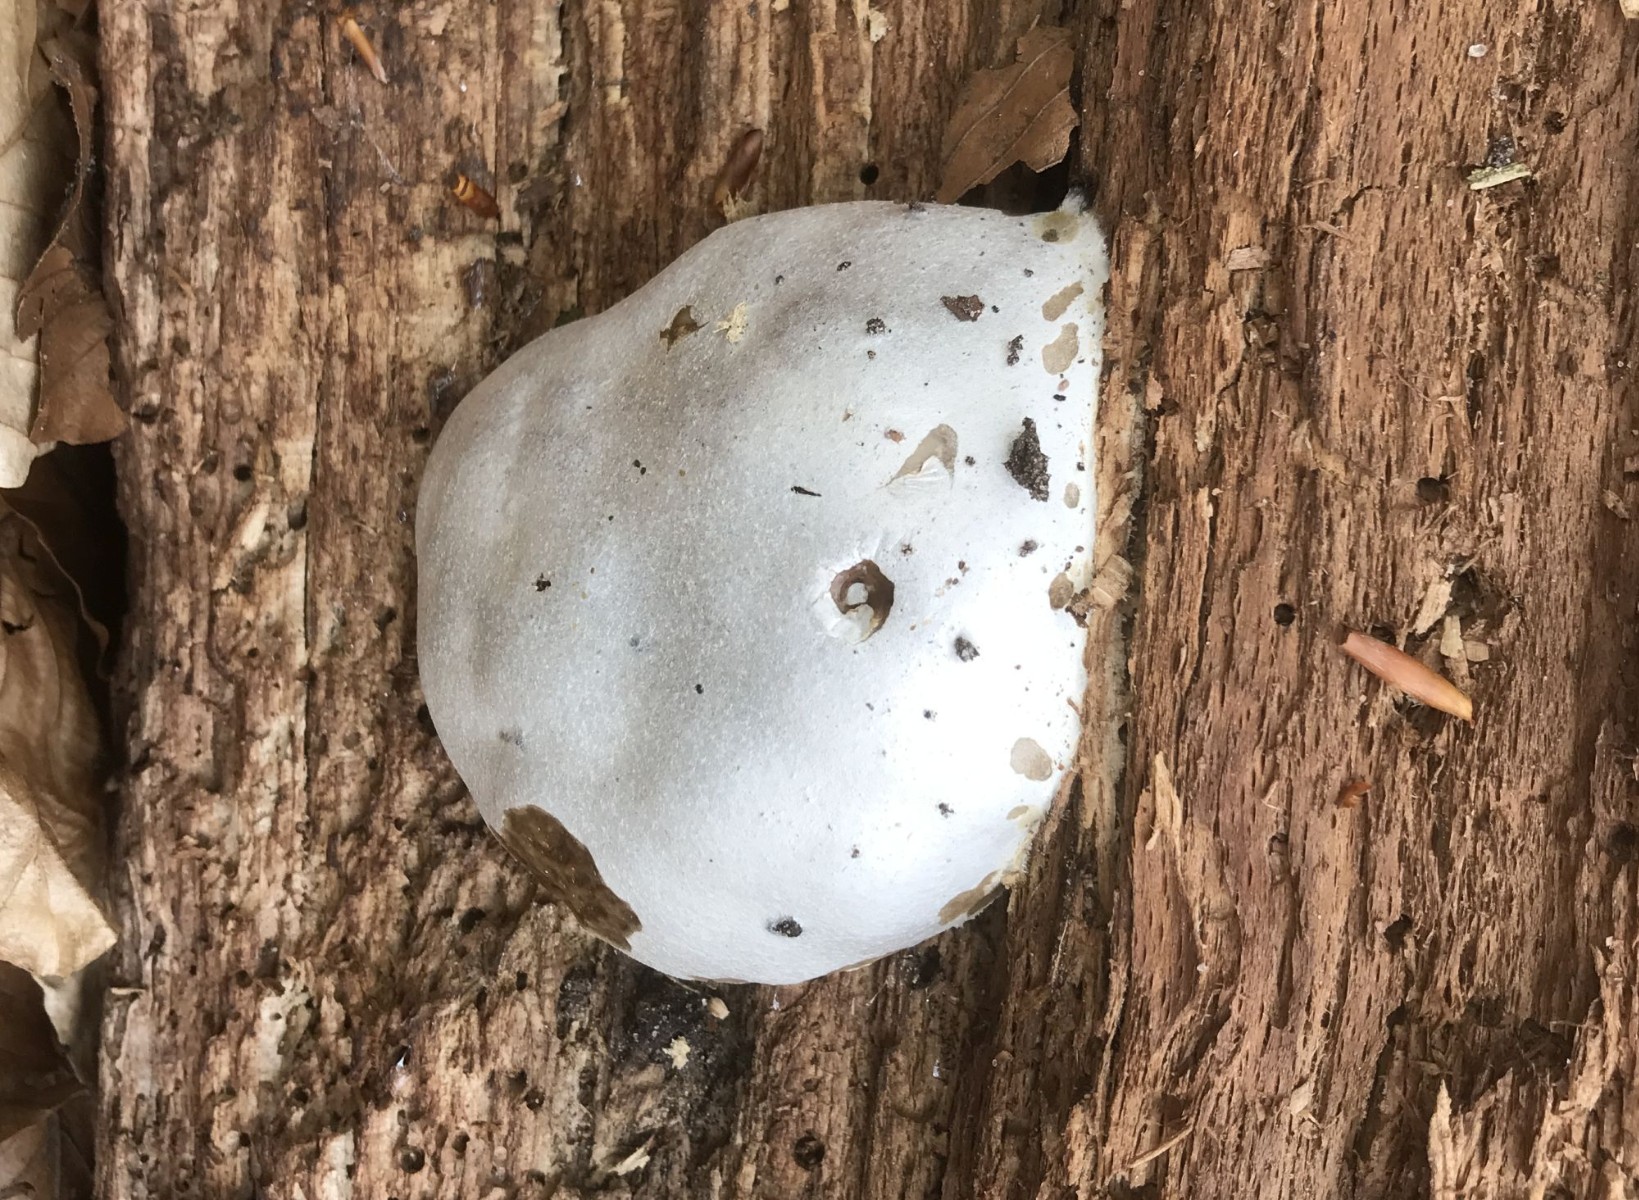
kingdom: Protozoa
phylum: Mycetozoa
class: Myxomycetes
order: Cribrariales
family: Tubiferaceae
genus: Reticularia
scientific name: Reticularia lycoperdon
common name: skinnende støvpude
